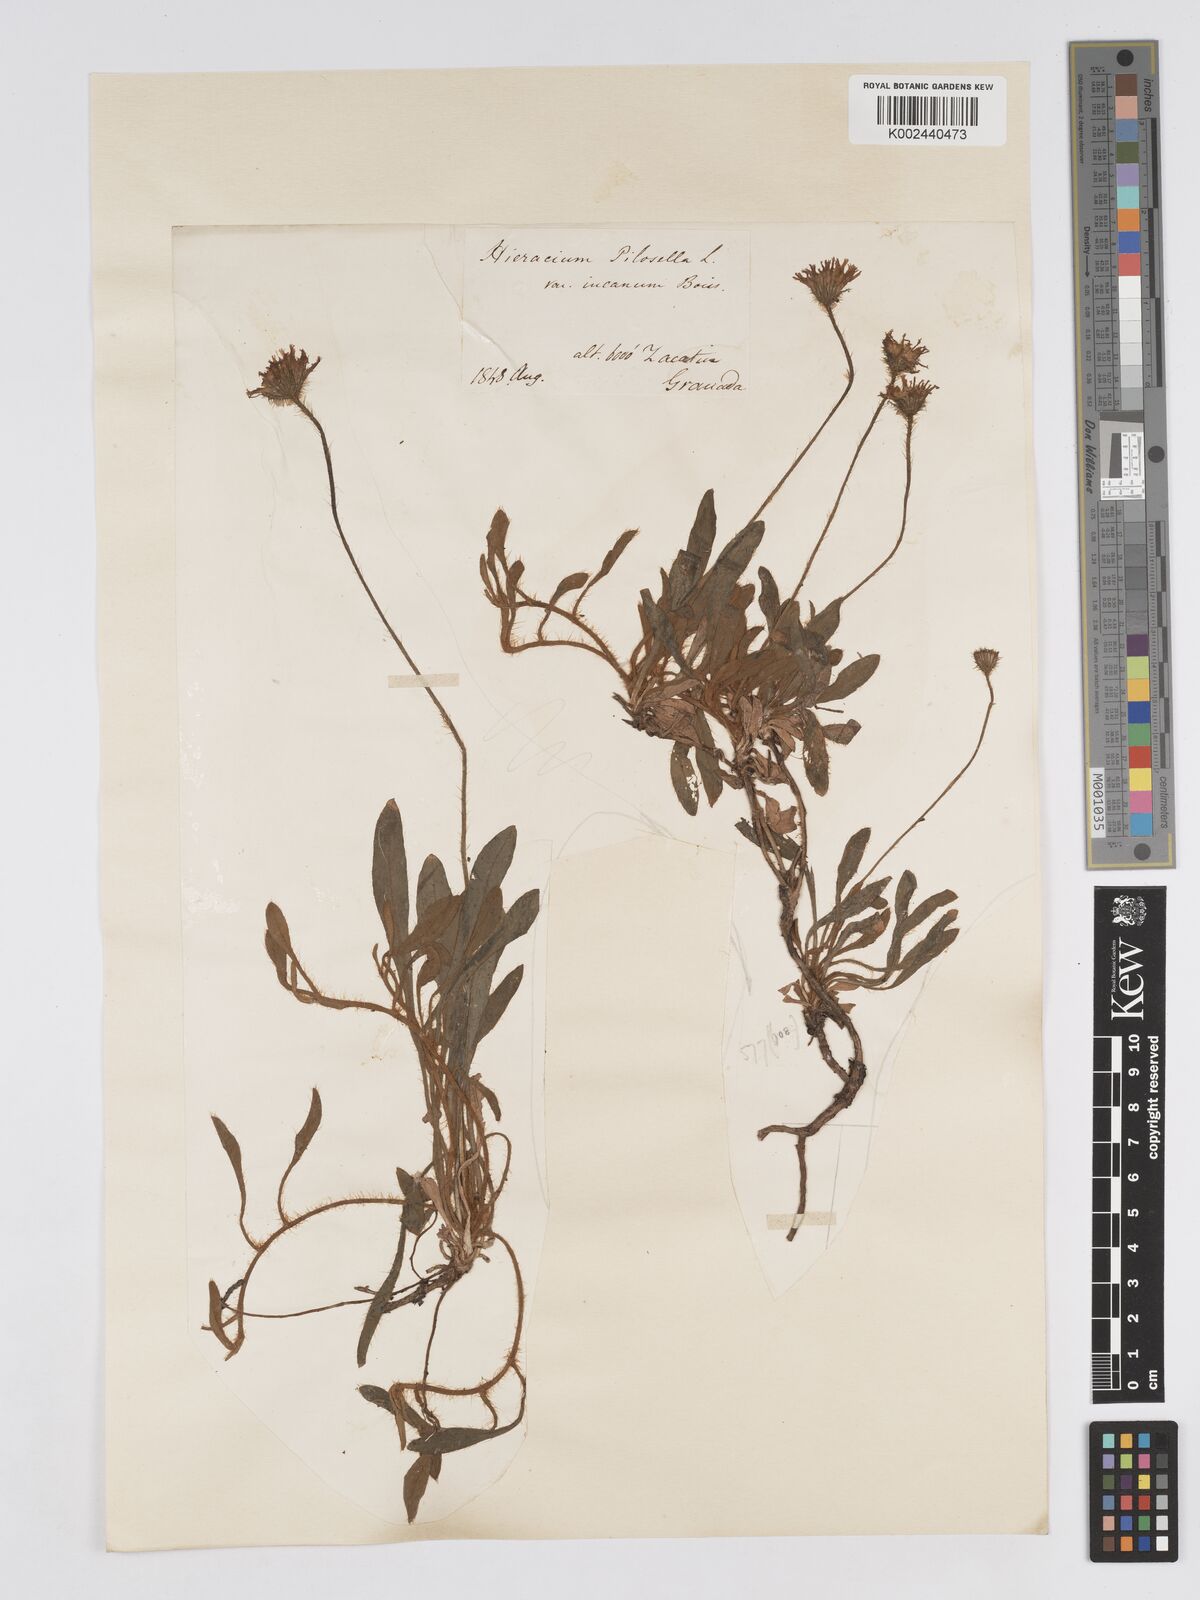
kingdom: Plantae
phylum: Tracheophyta
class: Magnoliopsida
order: Asterales
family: Asteraceae
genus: Pilosella
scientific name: Pilosella velutina
